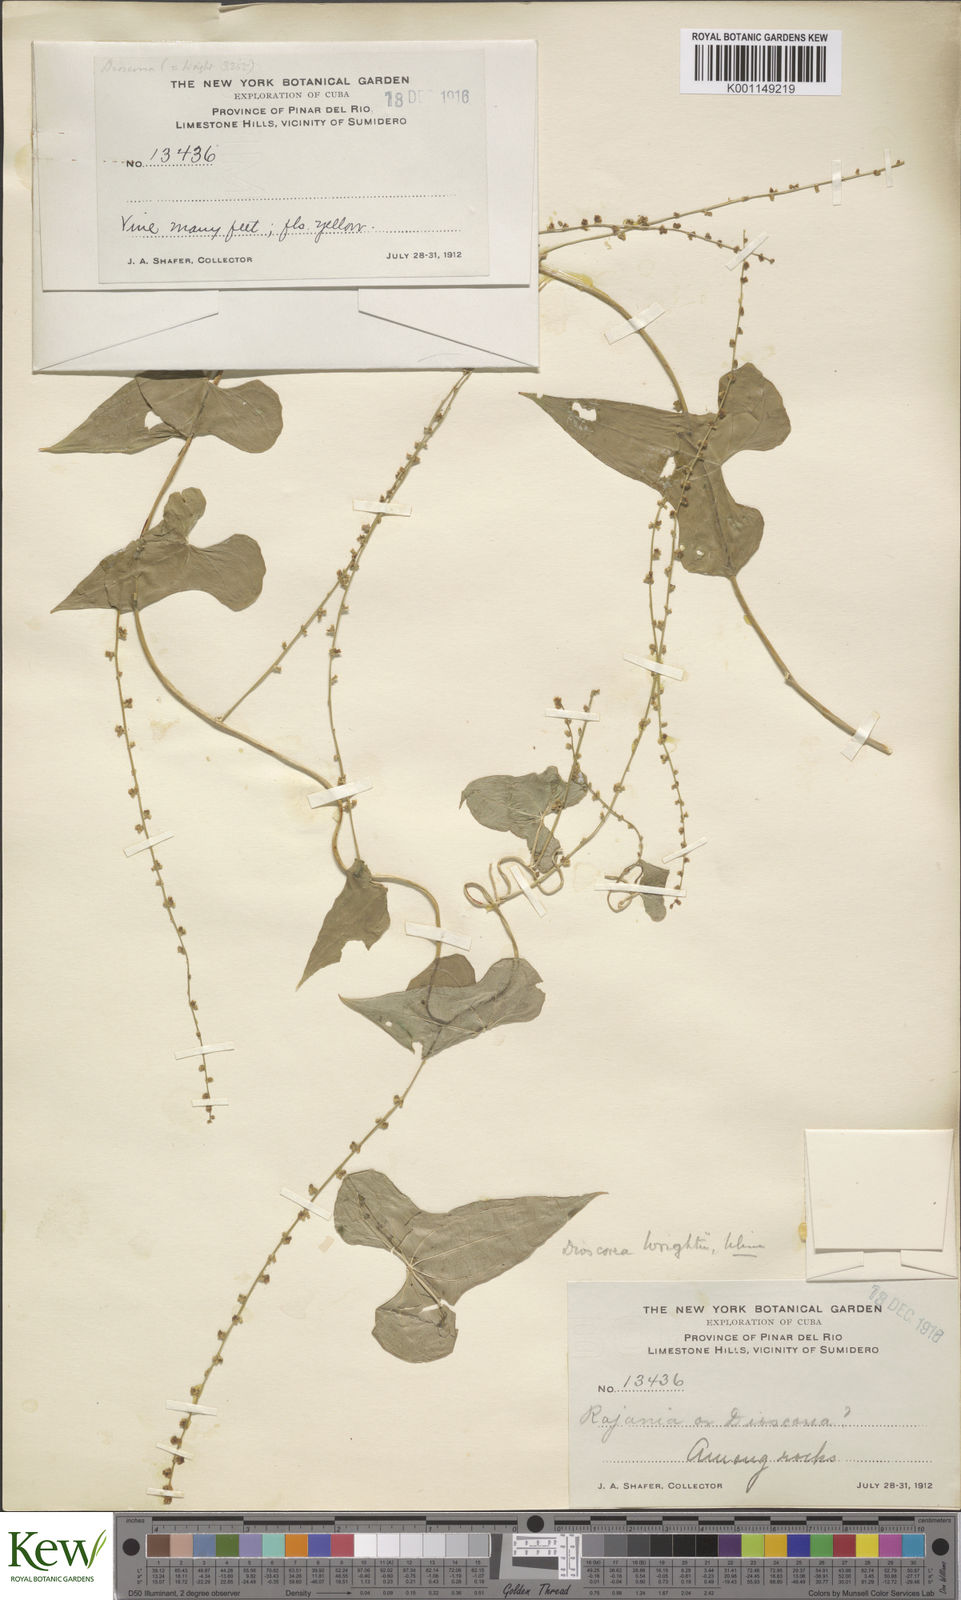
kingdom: Plantae
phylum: Tracheophyta
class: Liliopsida
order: Dioscoreales
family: Dioscoreaceae
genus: Dioscorea
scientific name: Dioscorea wrightii
